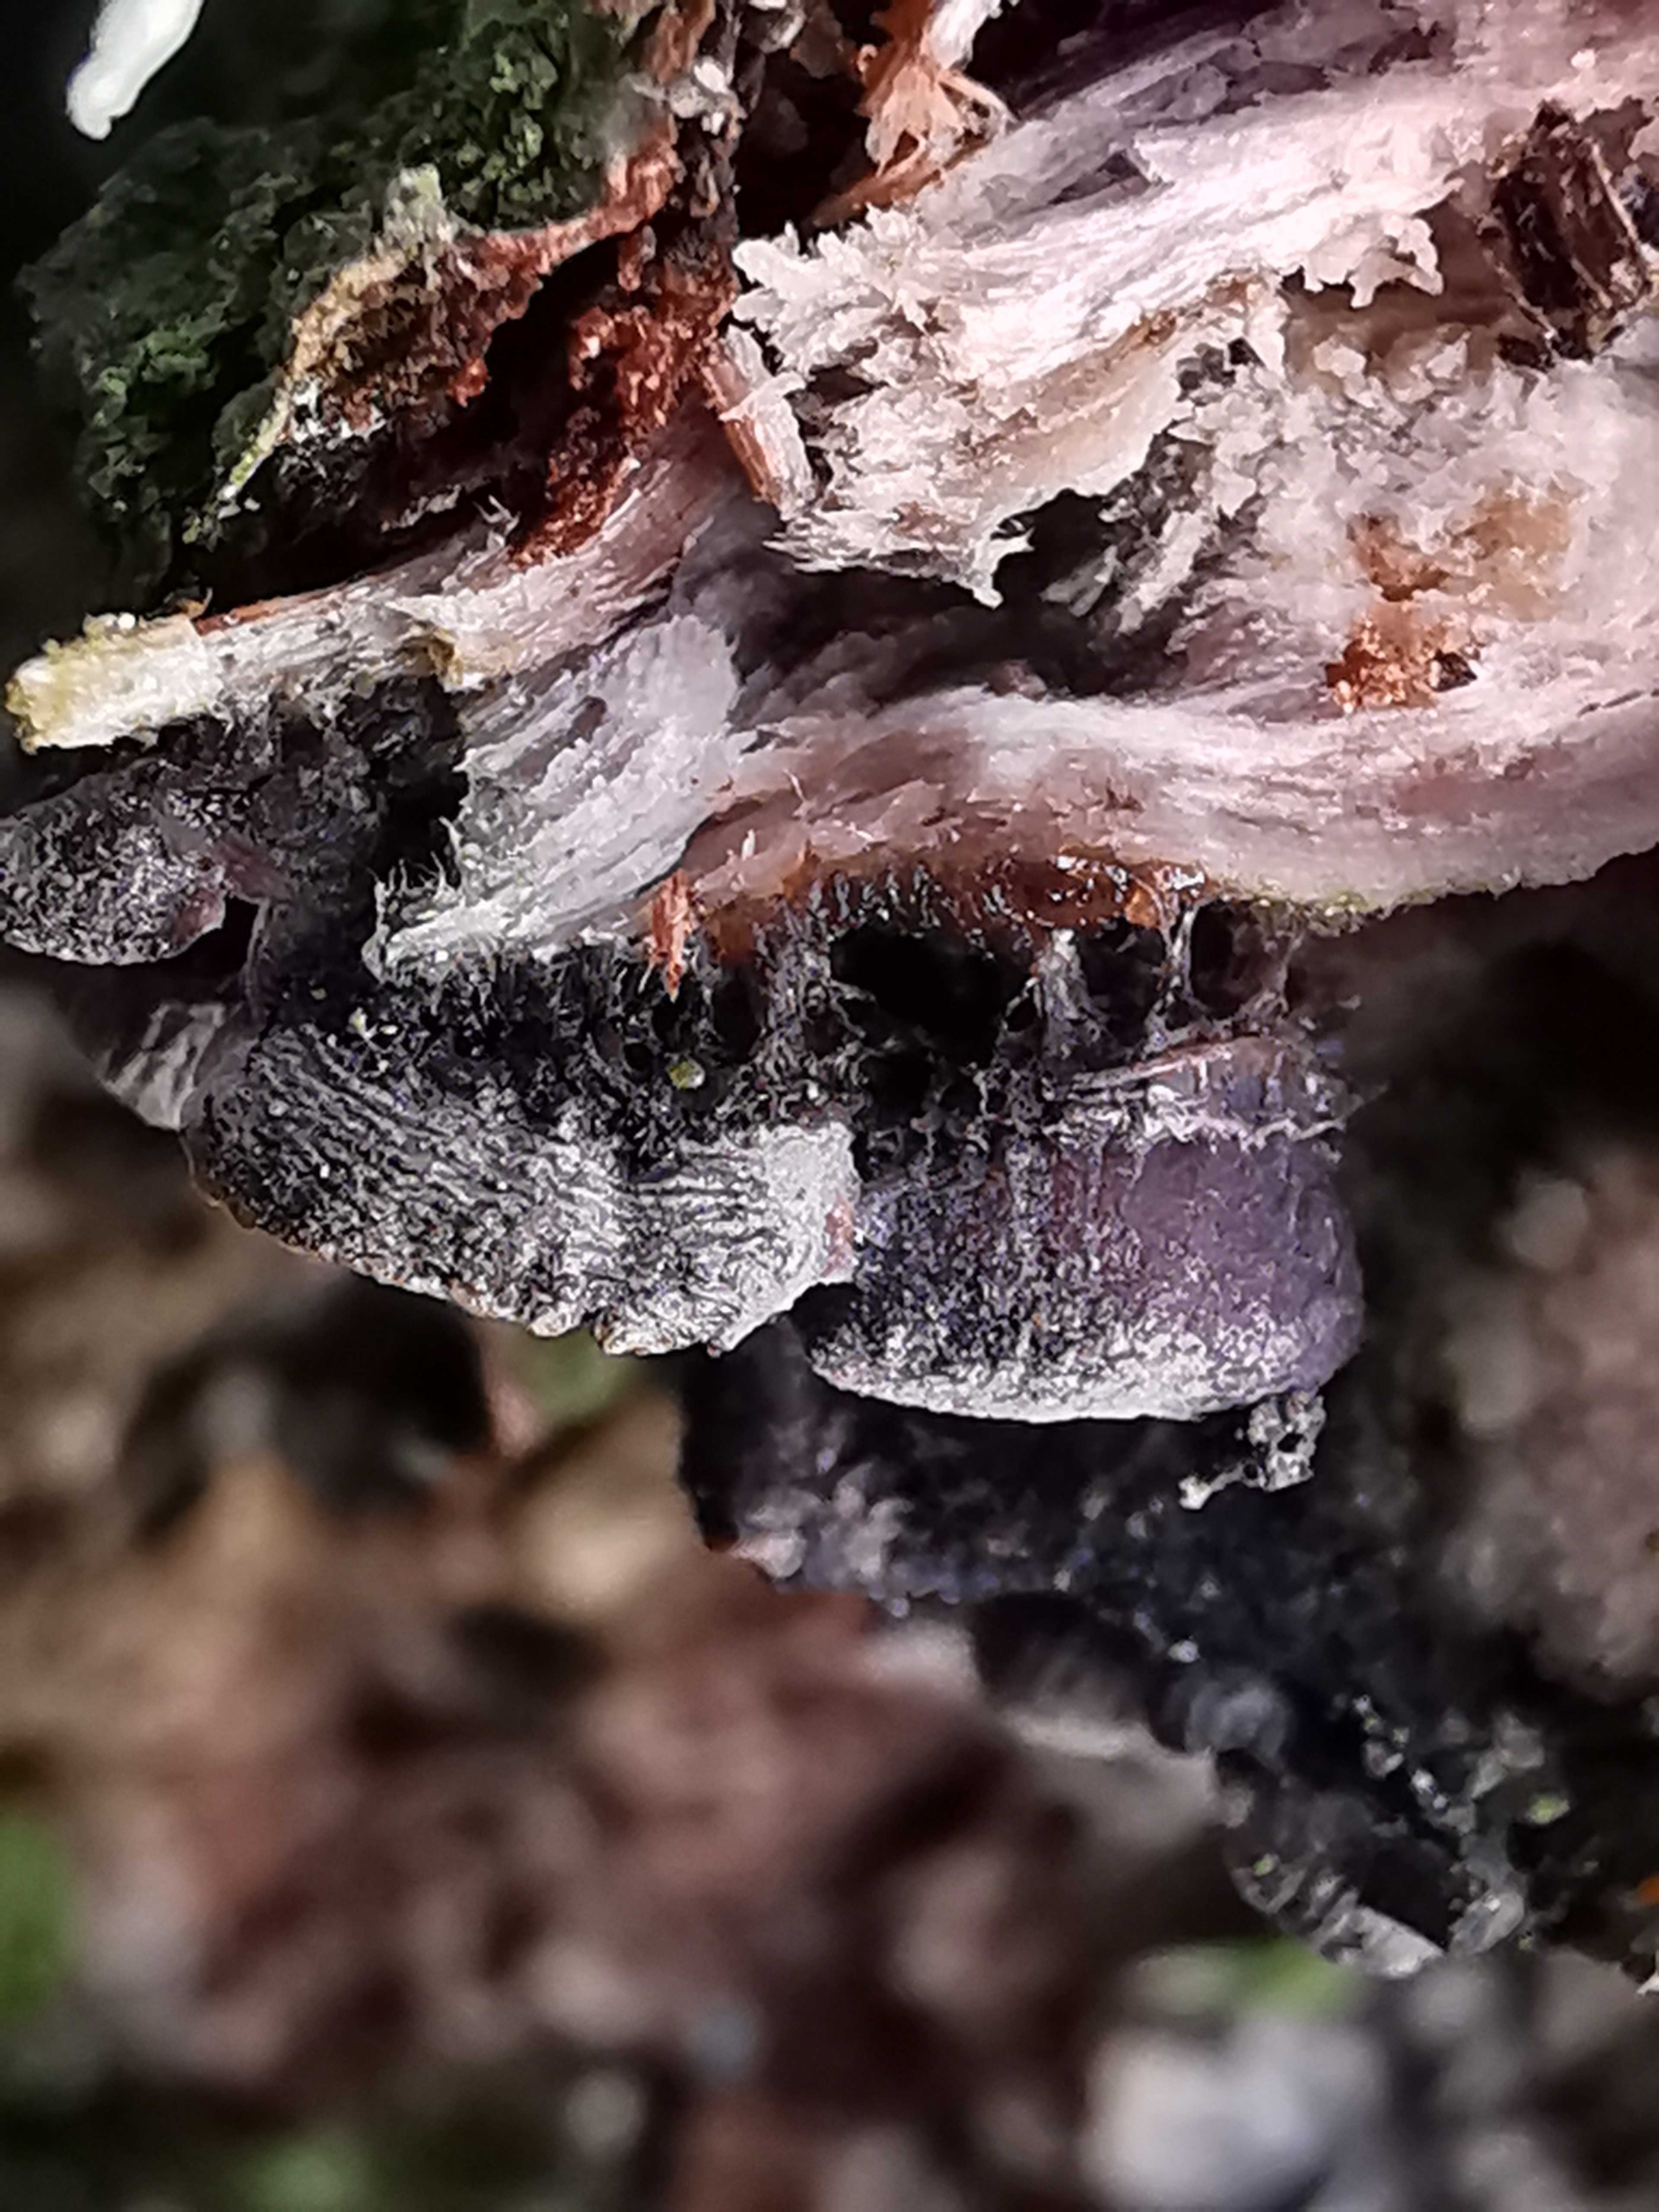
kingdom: Fungi
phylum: Basidiomycota
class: Agaricomycetes
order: Agaricales
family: Pleurotaceae
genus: Resupinatus
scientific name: Resupinatus trichotis
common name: mørkfiltet barkhat
